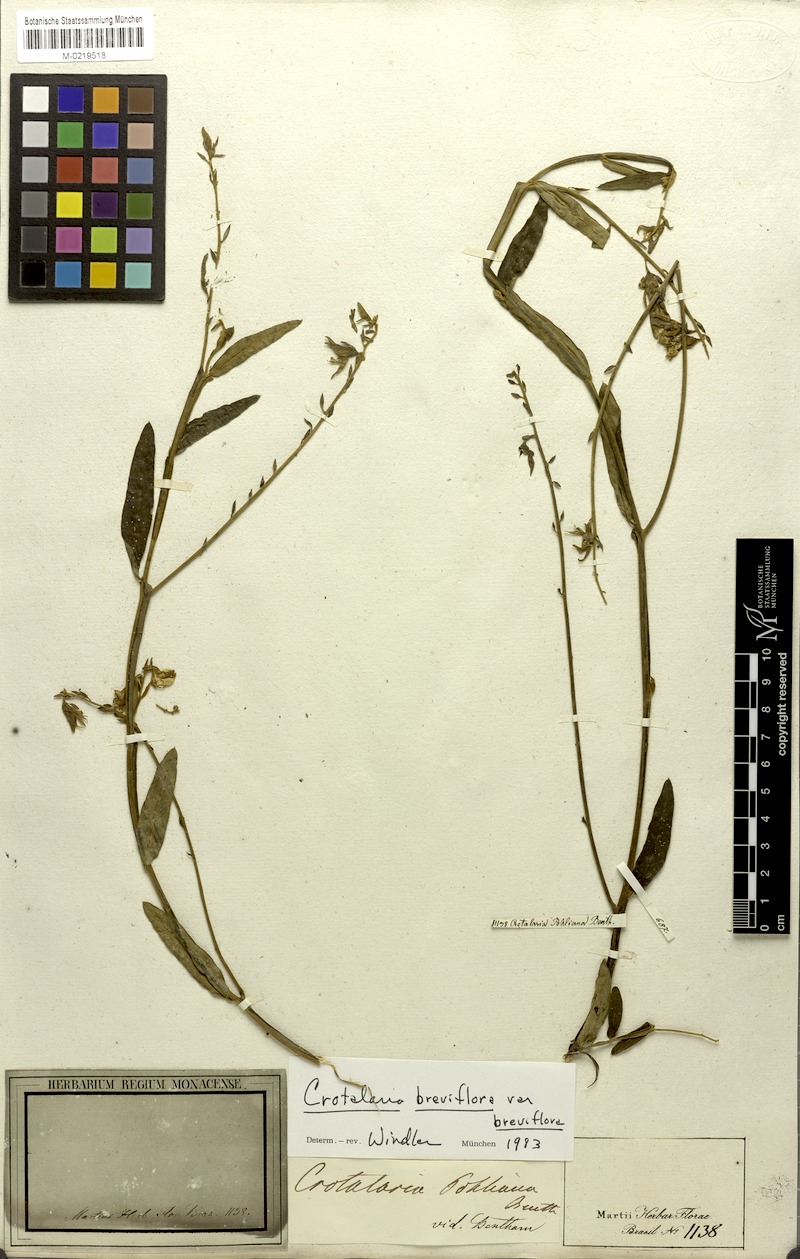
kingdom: Plantae
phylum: Tracheophyta
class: Magnoliopsida
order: Fabales
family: Fabaceae
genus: Crotalaria
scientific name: Crotalaria breviflora
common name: Short-flower crotalaria
